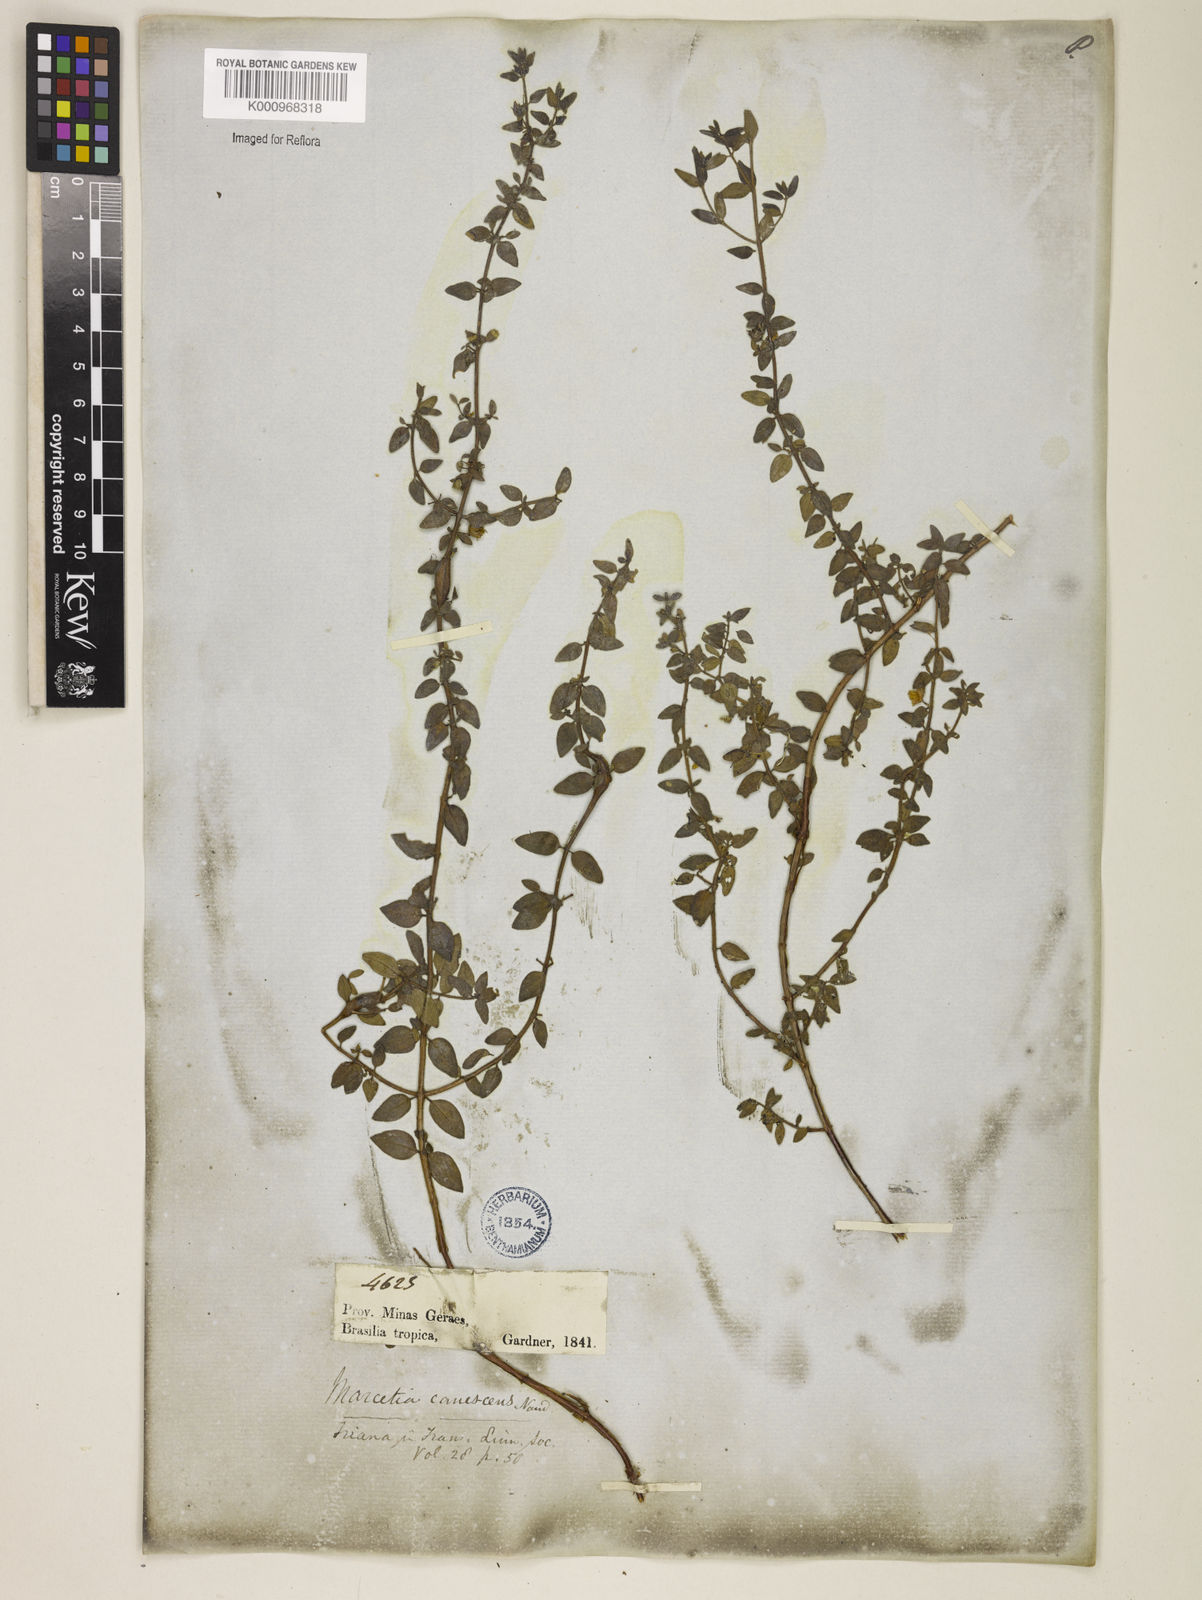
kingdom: Plantae
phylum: Tracheophyta
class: Magnoliopsida
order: Myrtales
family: Melastomataceae
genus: Marcetia
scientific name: Marcetia canescens
